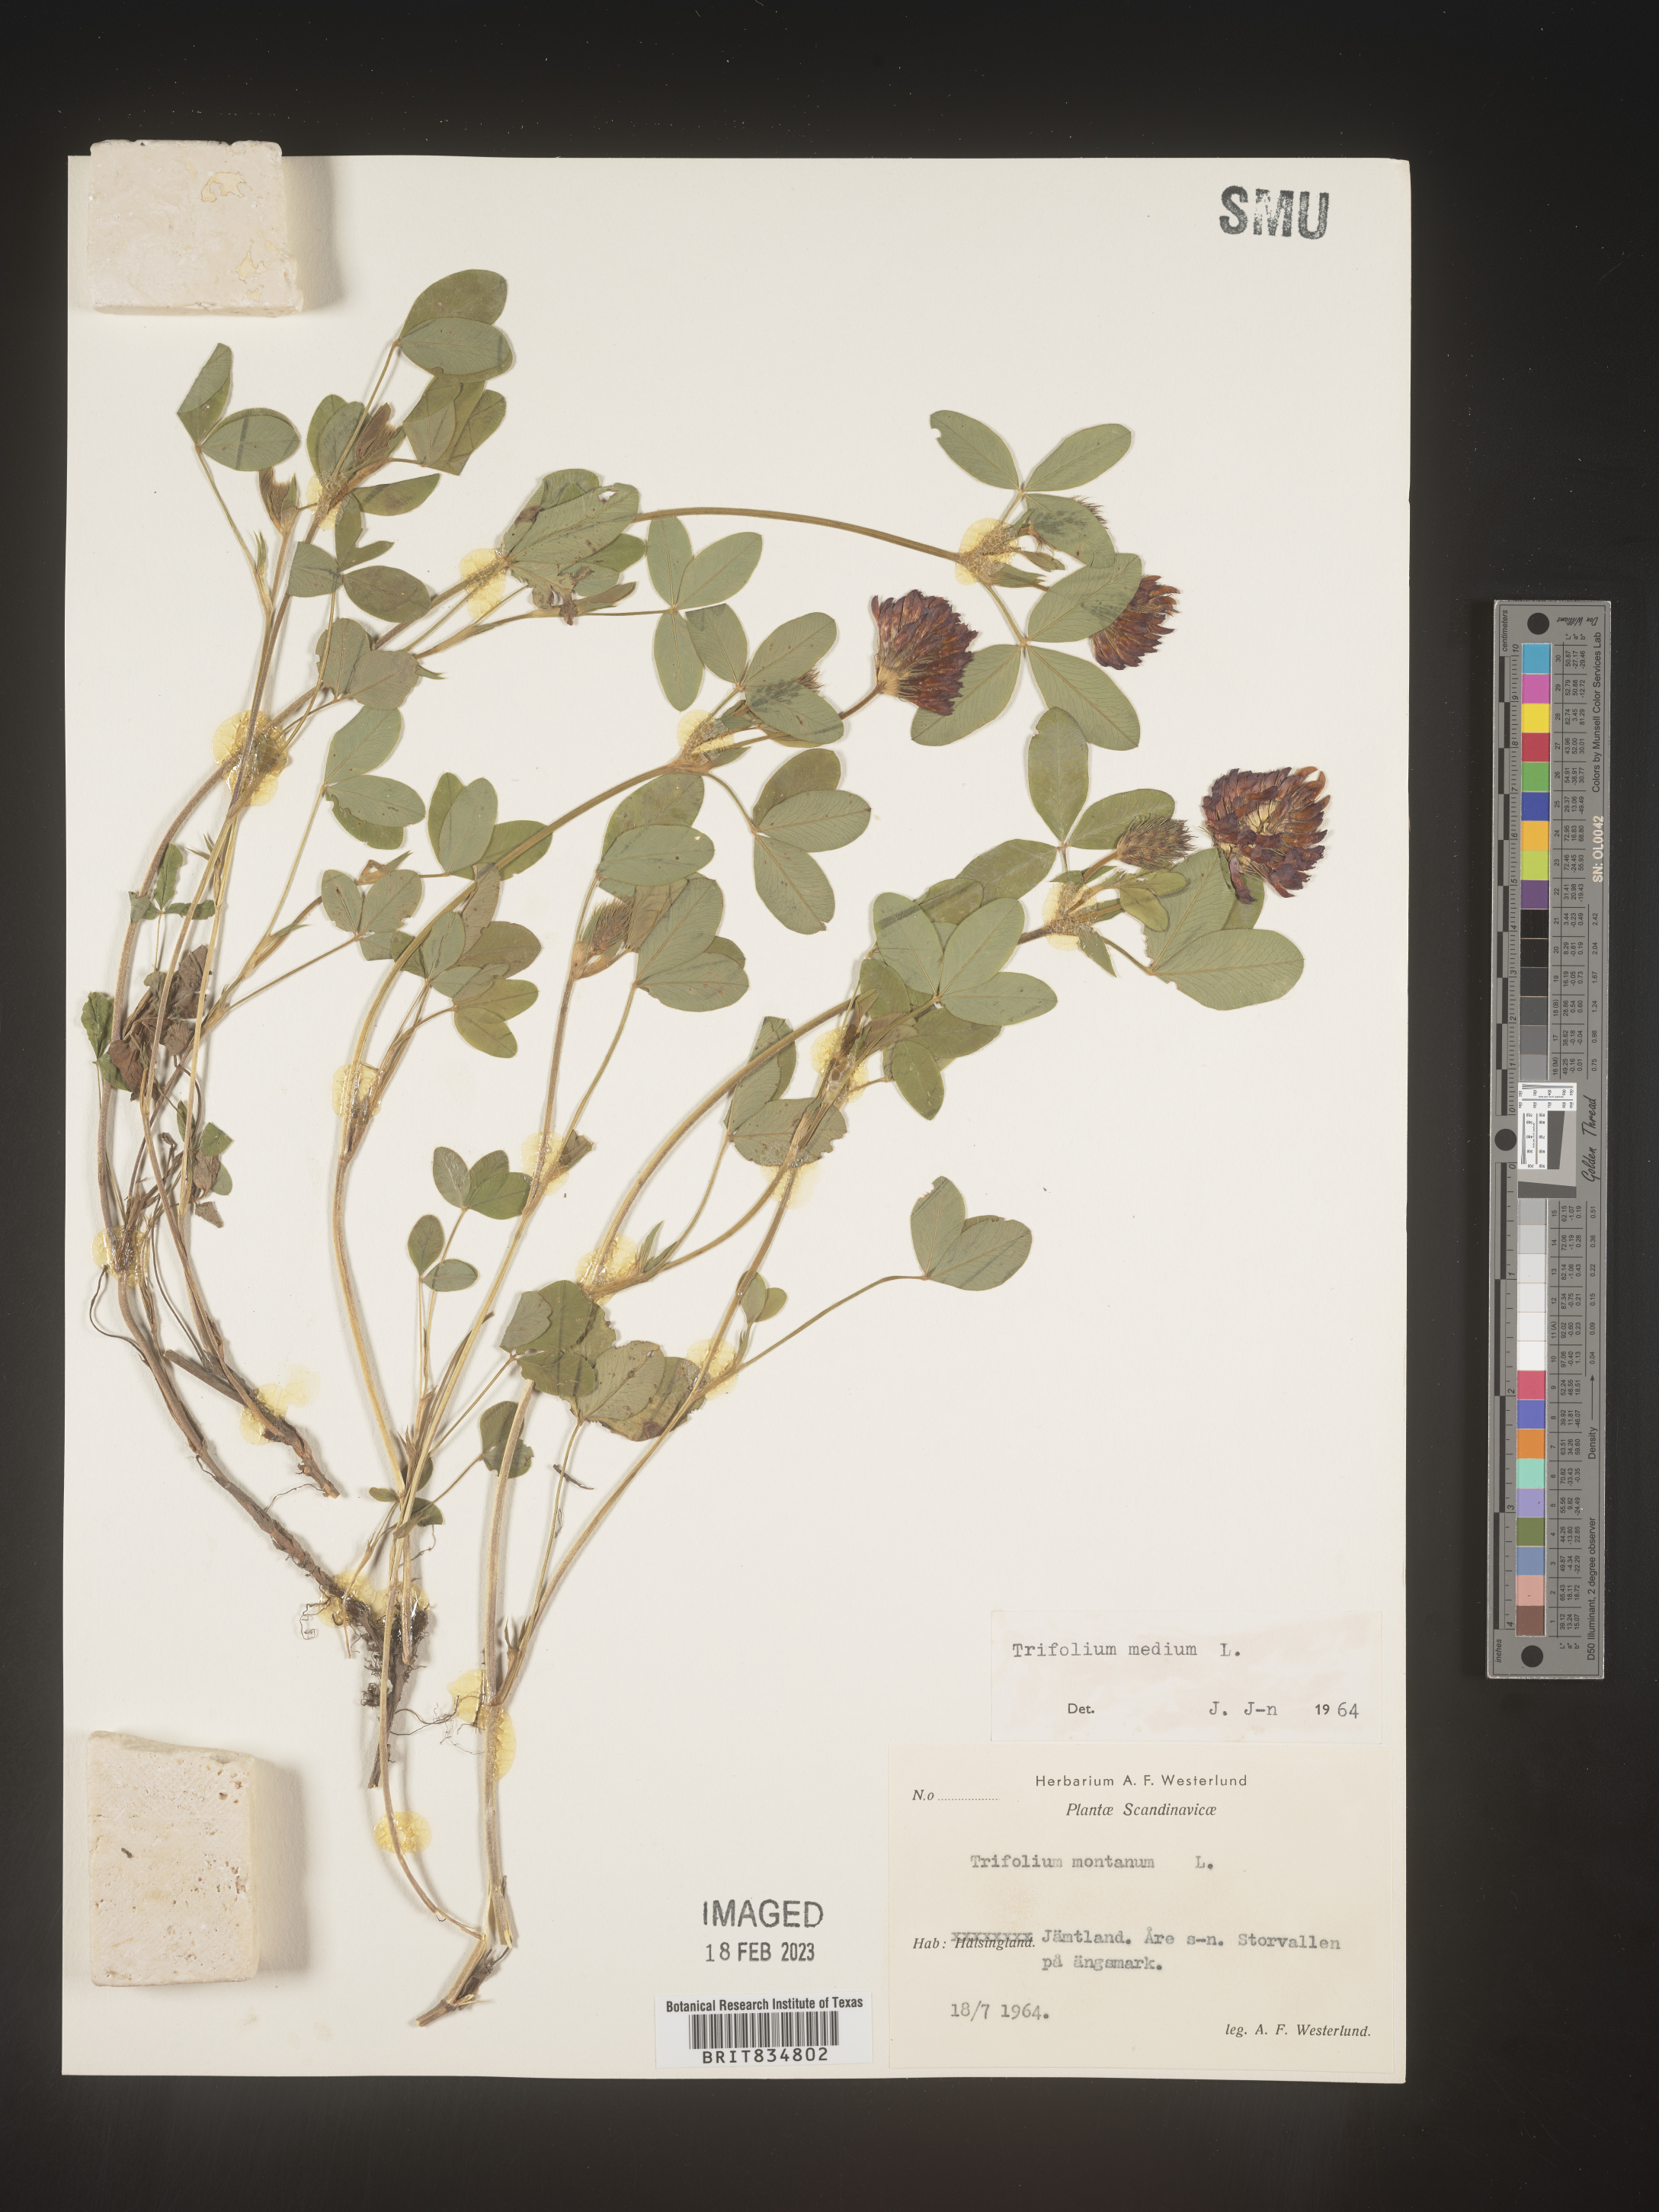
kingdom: Plantae
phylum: Tracheophyta
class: Magnoliopsida
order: Fabales
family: Fabaceae
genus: Trifolium
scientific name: Trifolium
